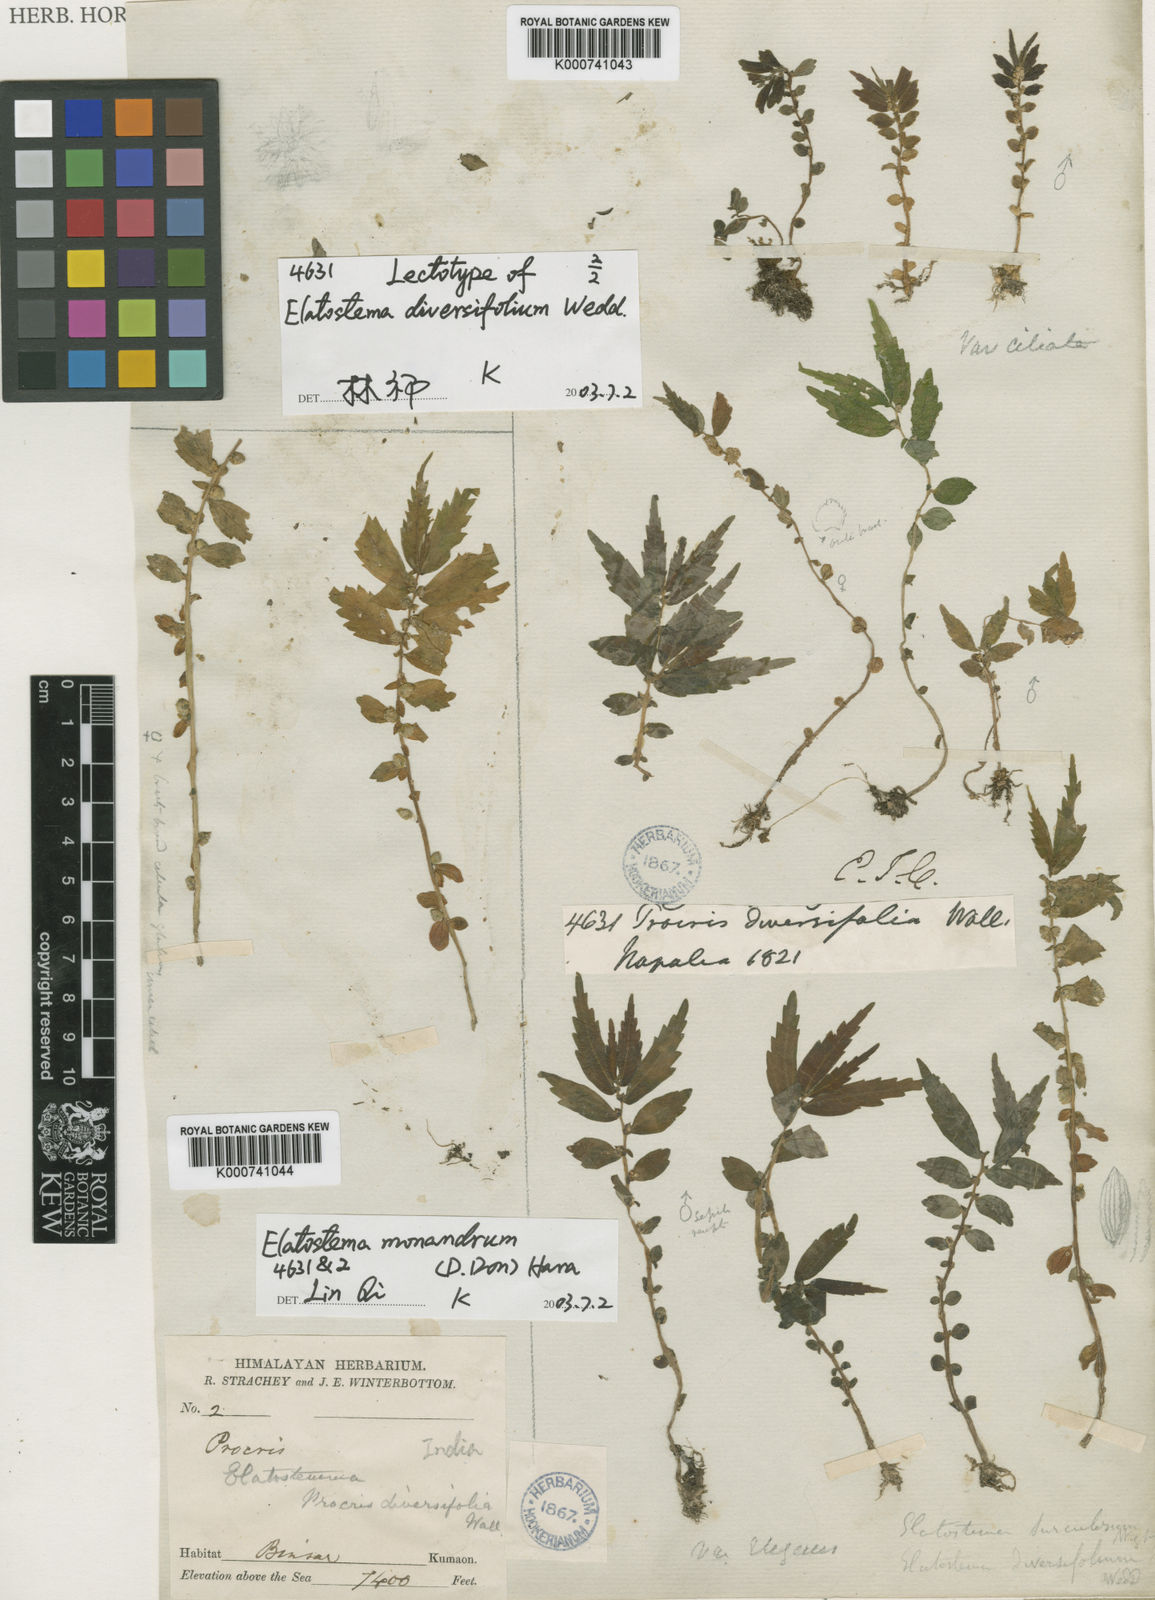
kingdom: Plantae
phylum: Tracheophyta
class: Magnoliopsida
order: Rosales
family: Urticaceae
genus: Elatostema
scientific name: Elatostema monandrum
